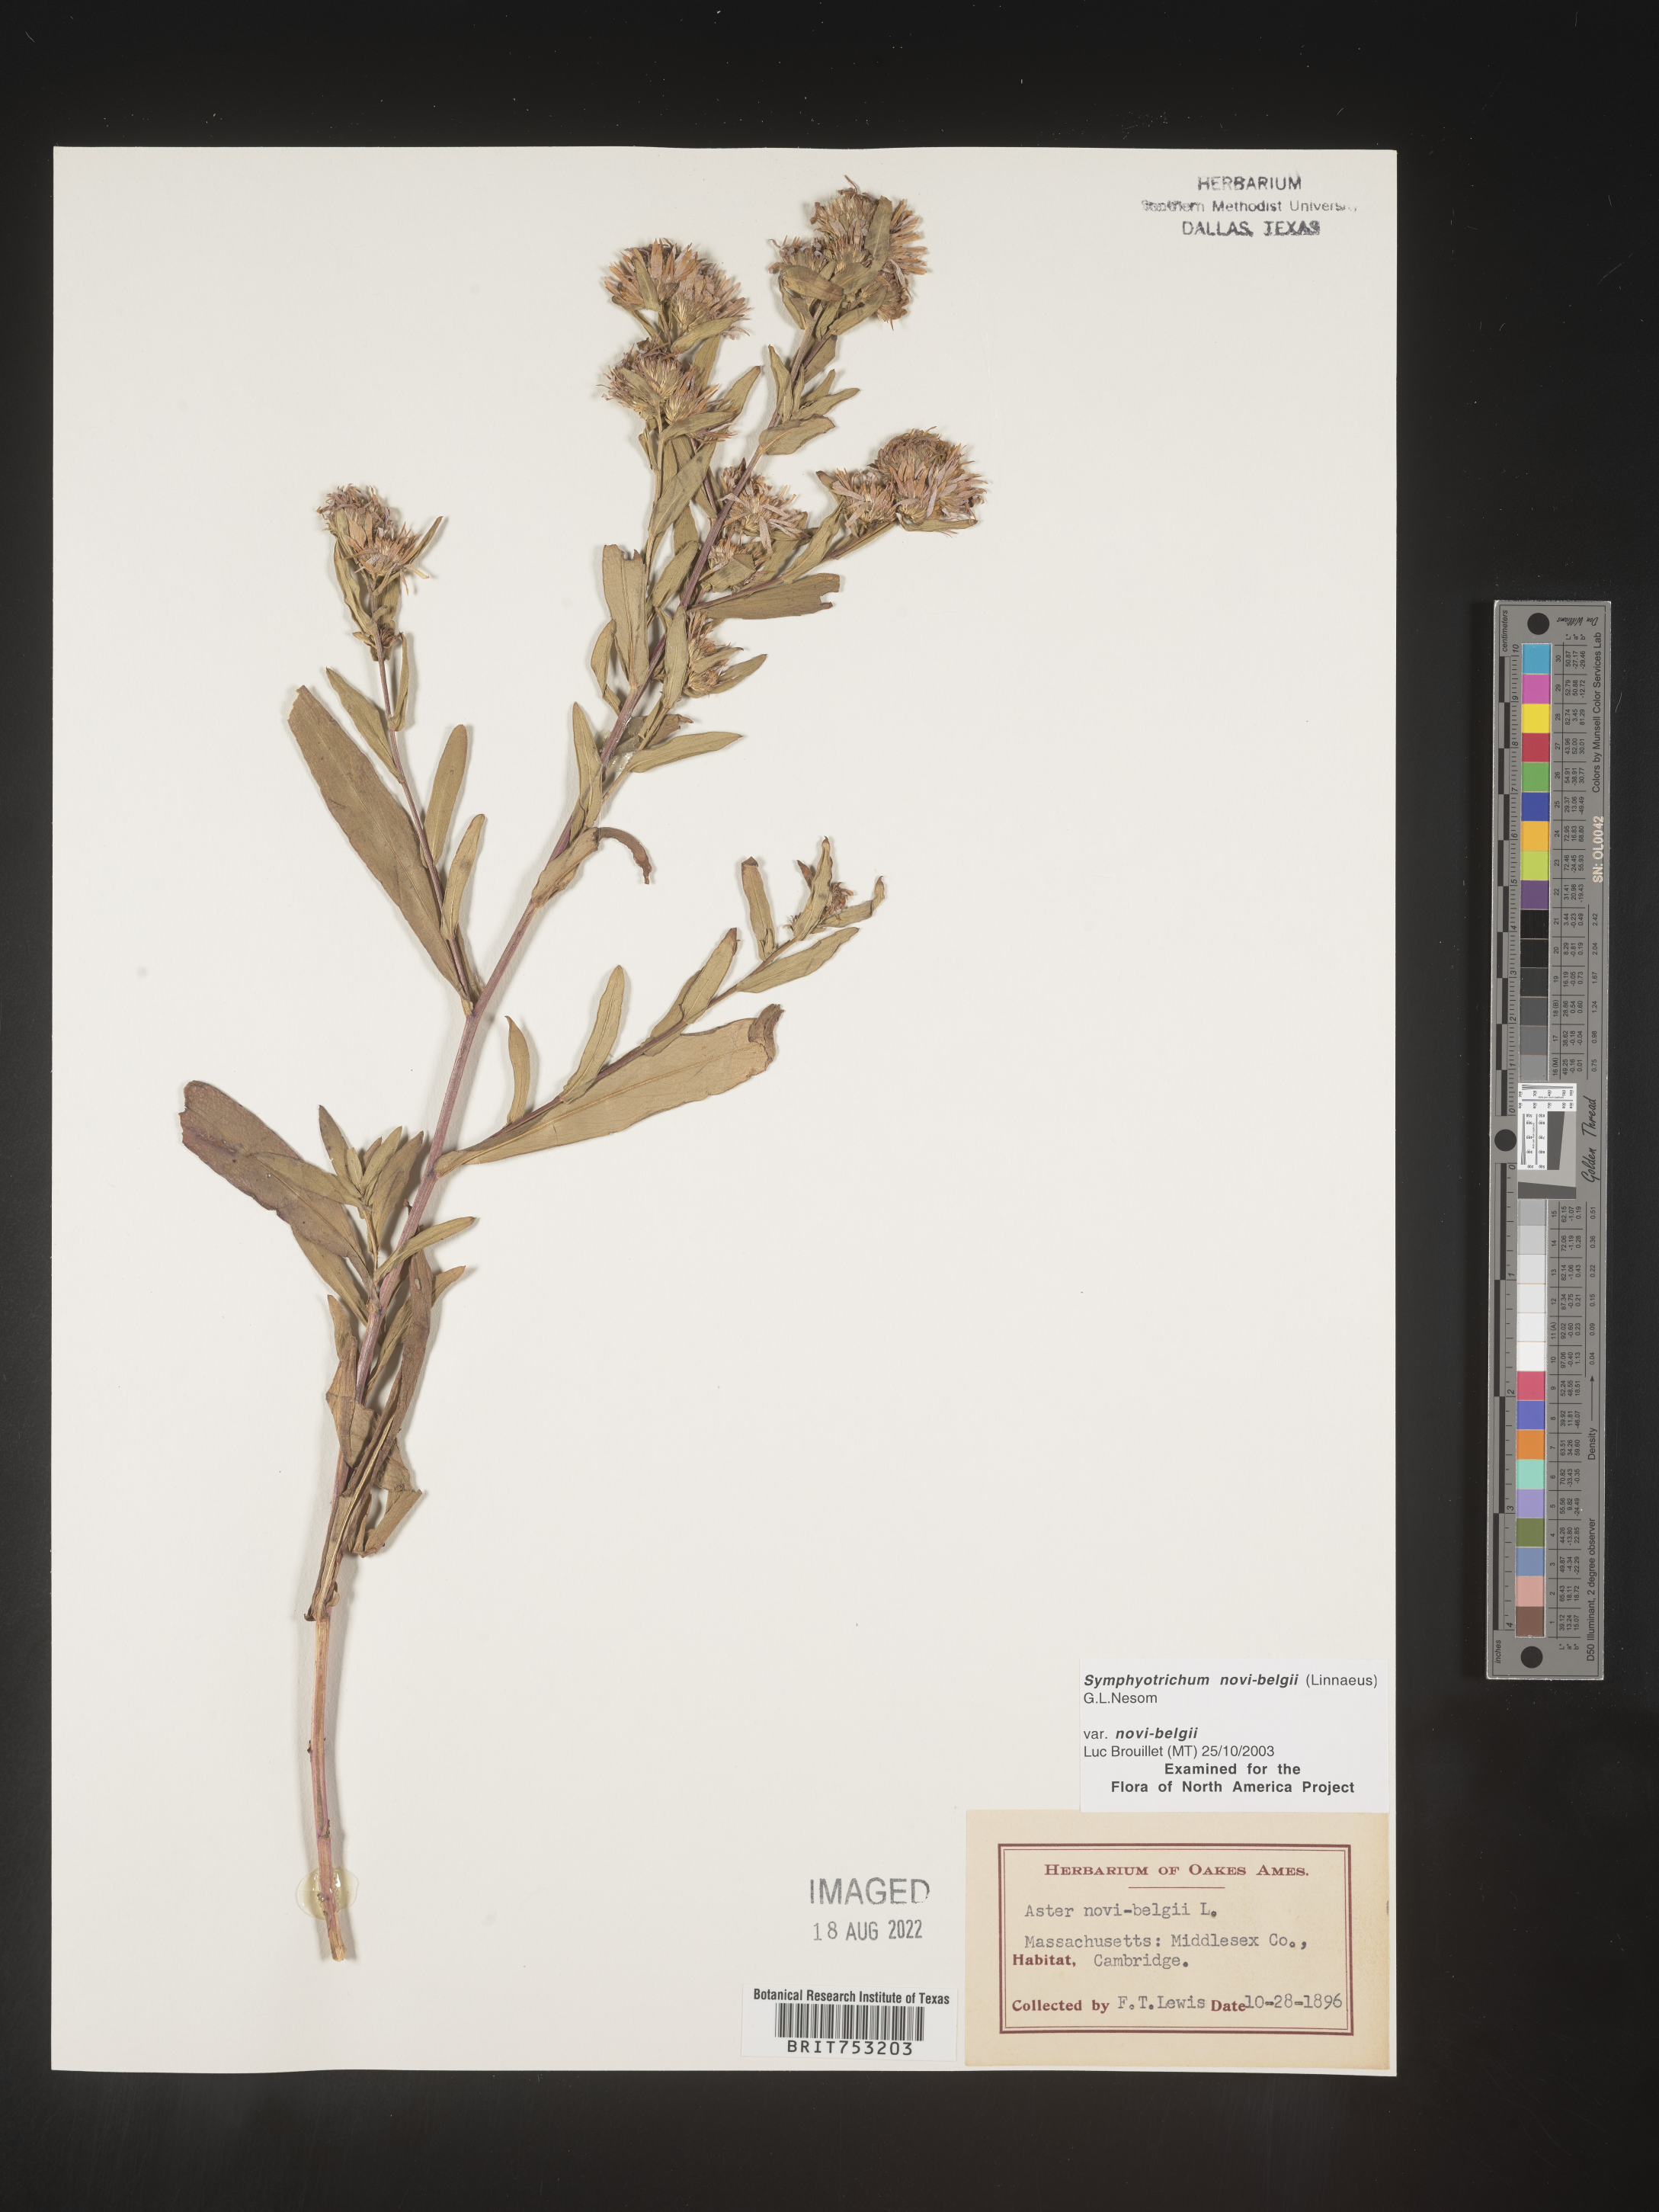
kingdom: Plantae
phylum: Tracheophyta
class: Magnoliopsida
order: Asterales
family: Asteraceae
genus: Symphyotrichum
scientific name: Symphyotrichum novi-belgii
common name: Michaelmas daisy
